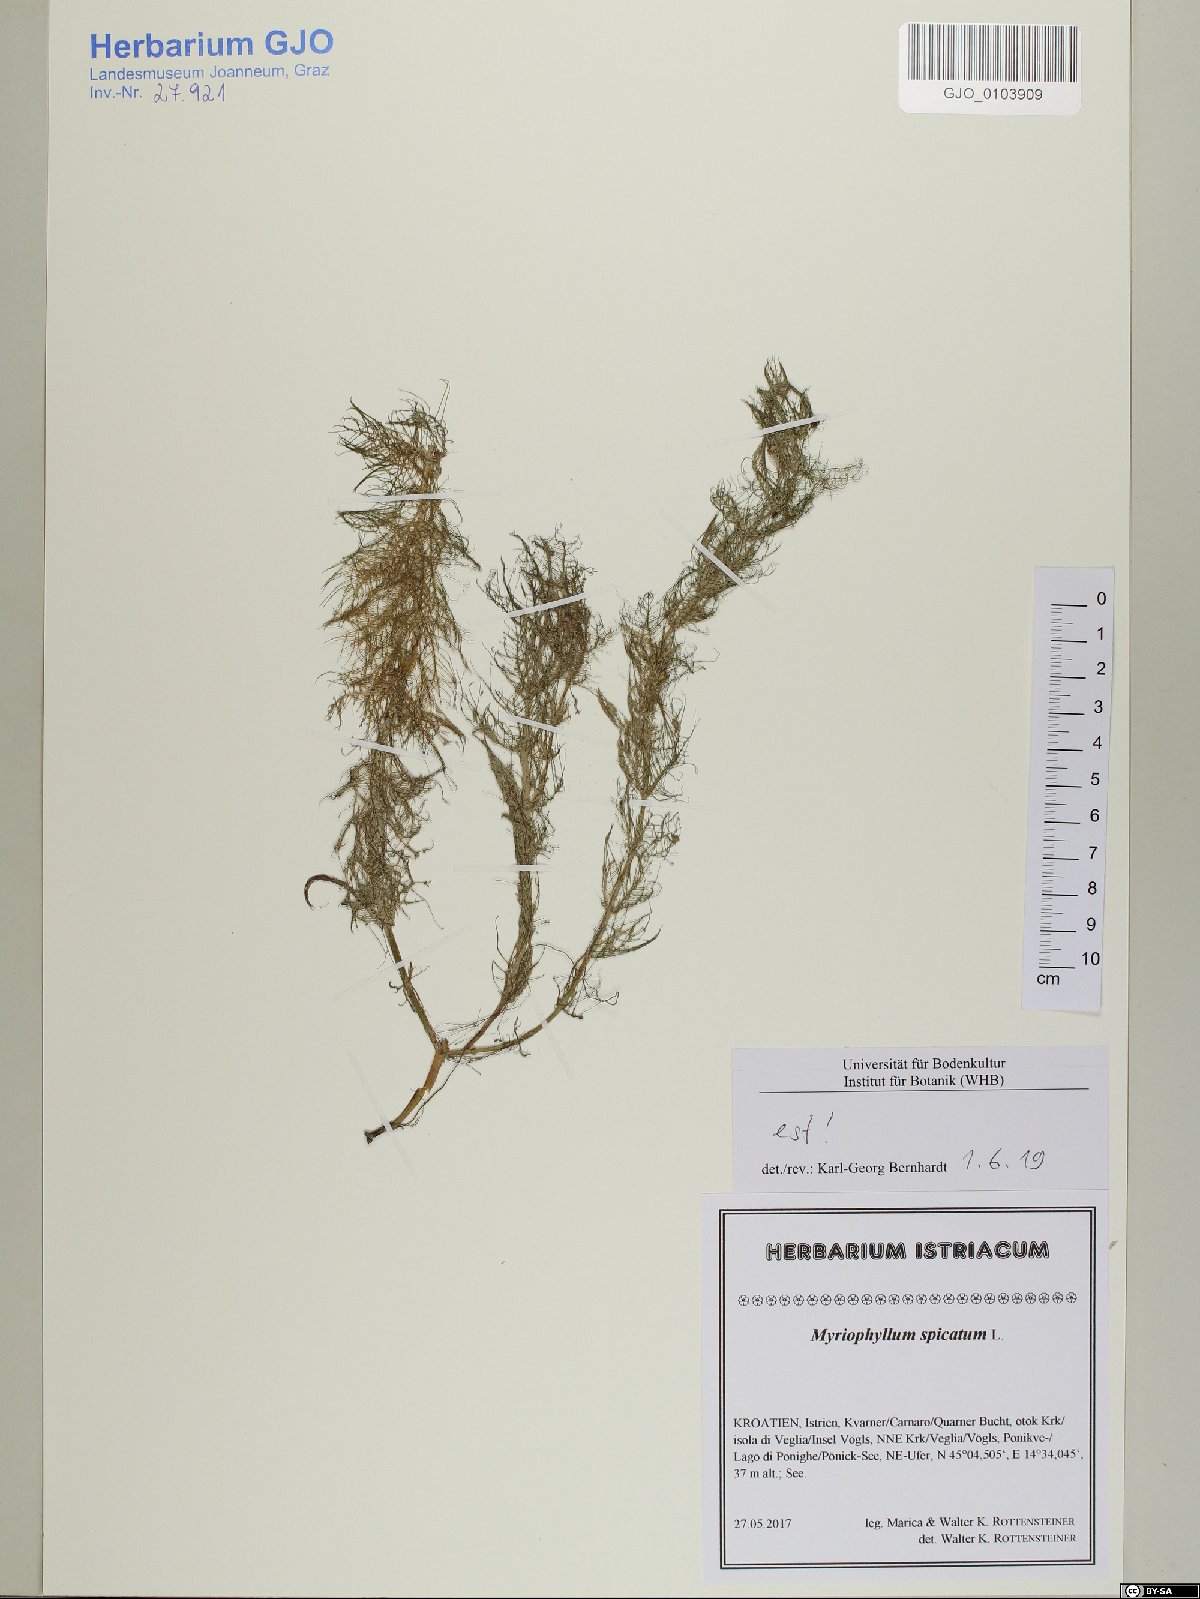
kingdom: Plantae
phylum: Tracheophyta
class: Magnoliopsida
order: Saxifragales
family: Haloragaceae
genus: Myriophyllum
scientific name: Myriophyllum spicatum
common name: Spiked water-milfoil
